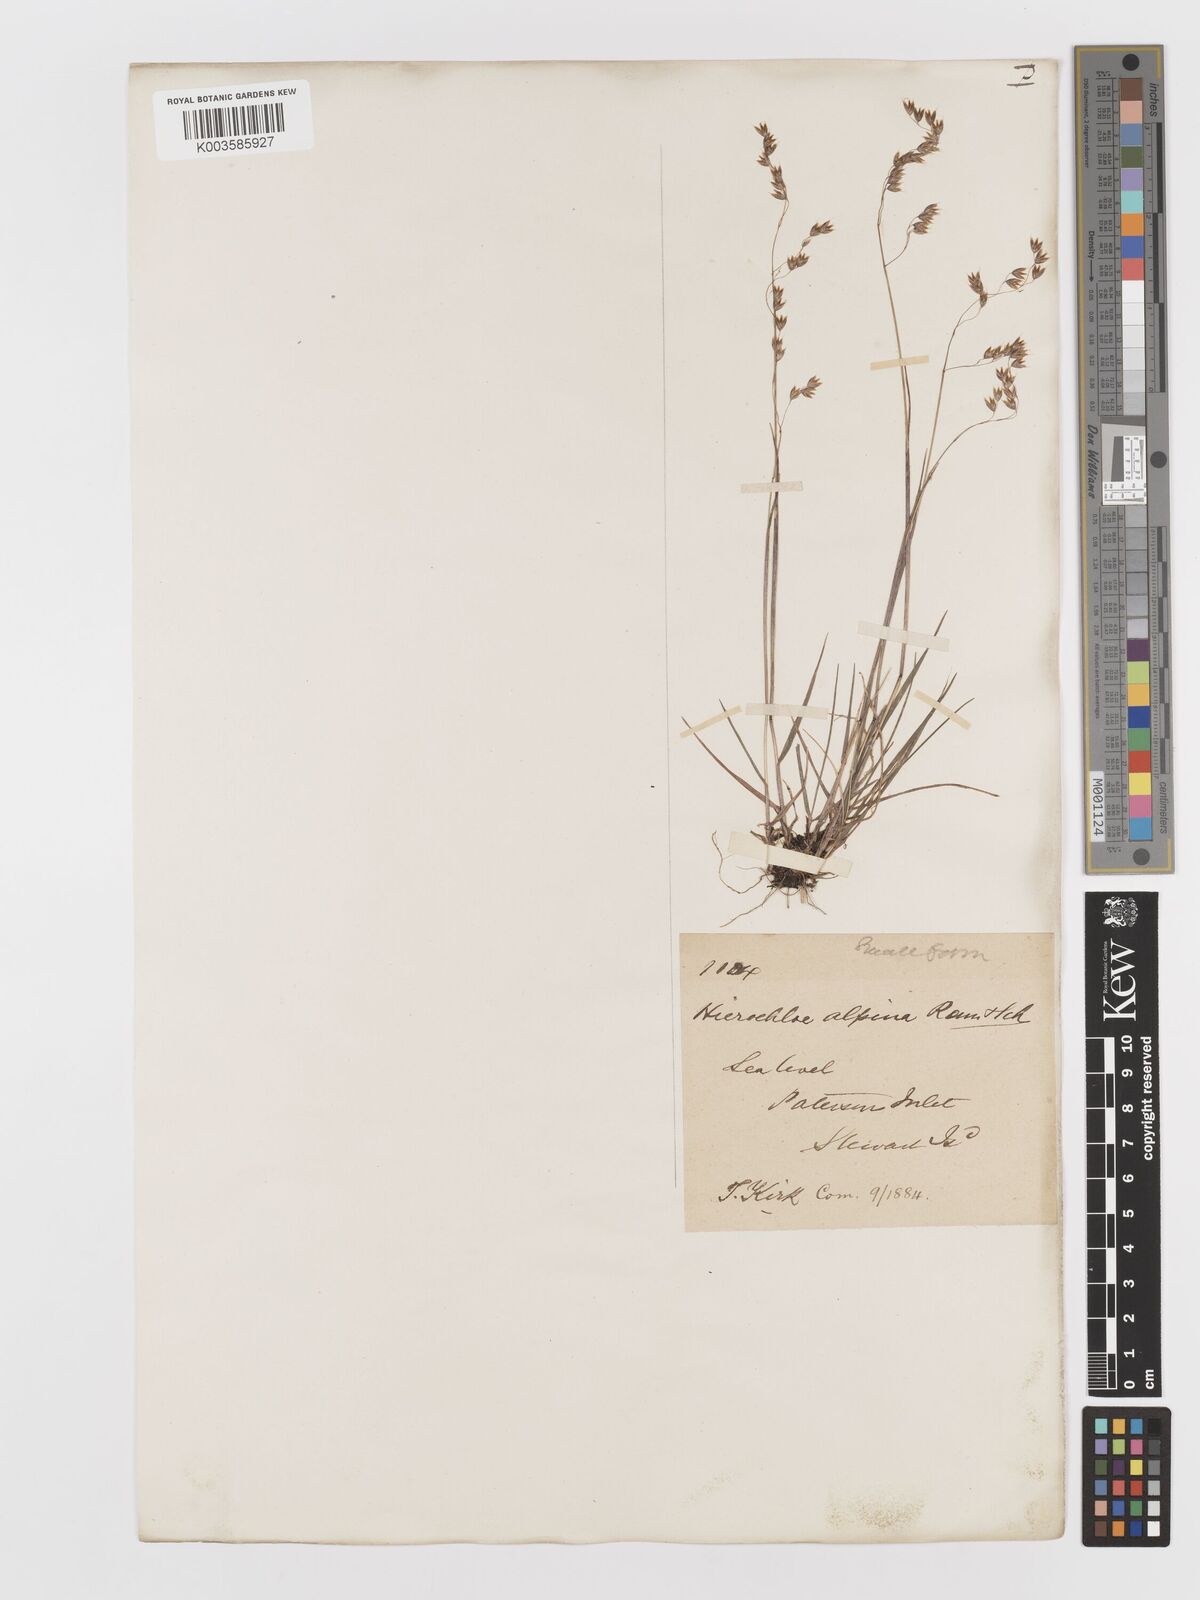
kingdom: Plantae
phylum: Tracheophyta
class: Liliopsida
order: Poales
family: Poaceae
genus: Anthoxanthum
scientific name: Anthoxanthum novae-zelandiae
